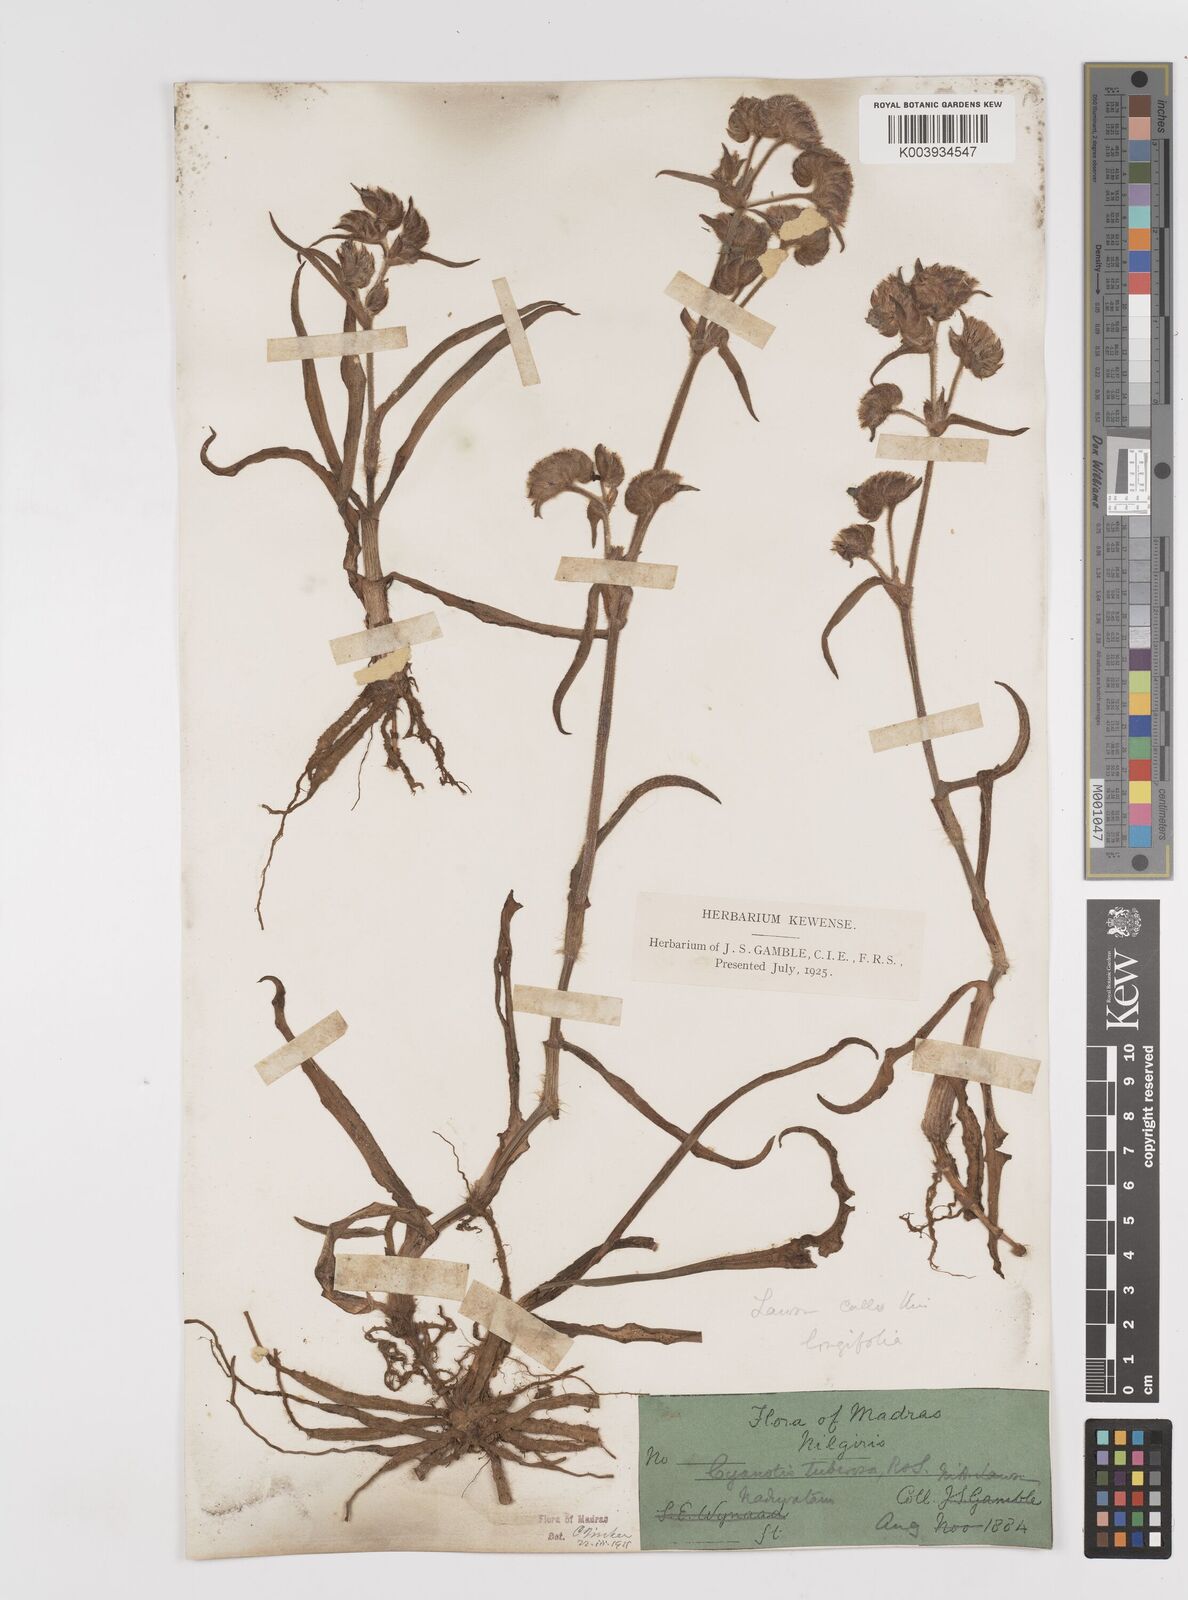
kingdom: Plantae
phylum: Tracheophyta
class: Liliopsida
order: Commelinales
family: Commelinaceae
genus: Cyanotis
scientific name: Cyanotis tuberosa
